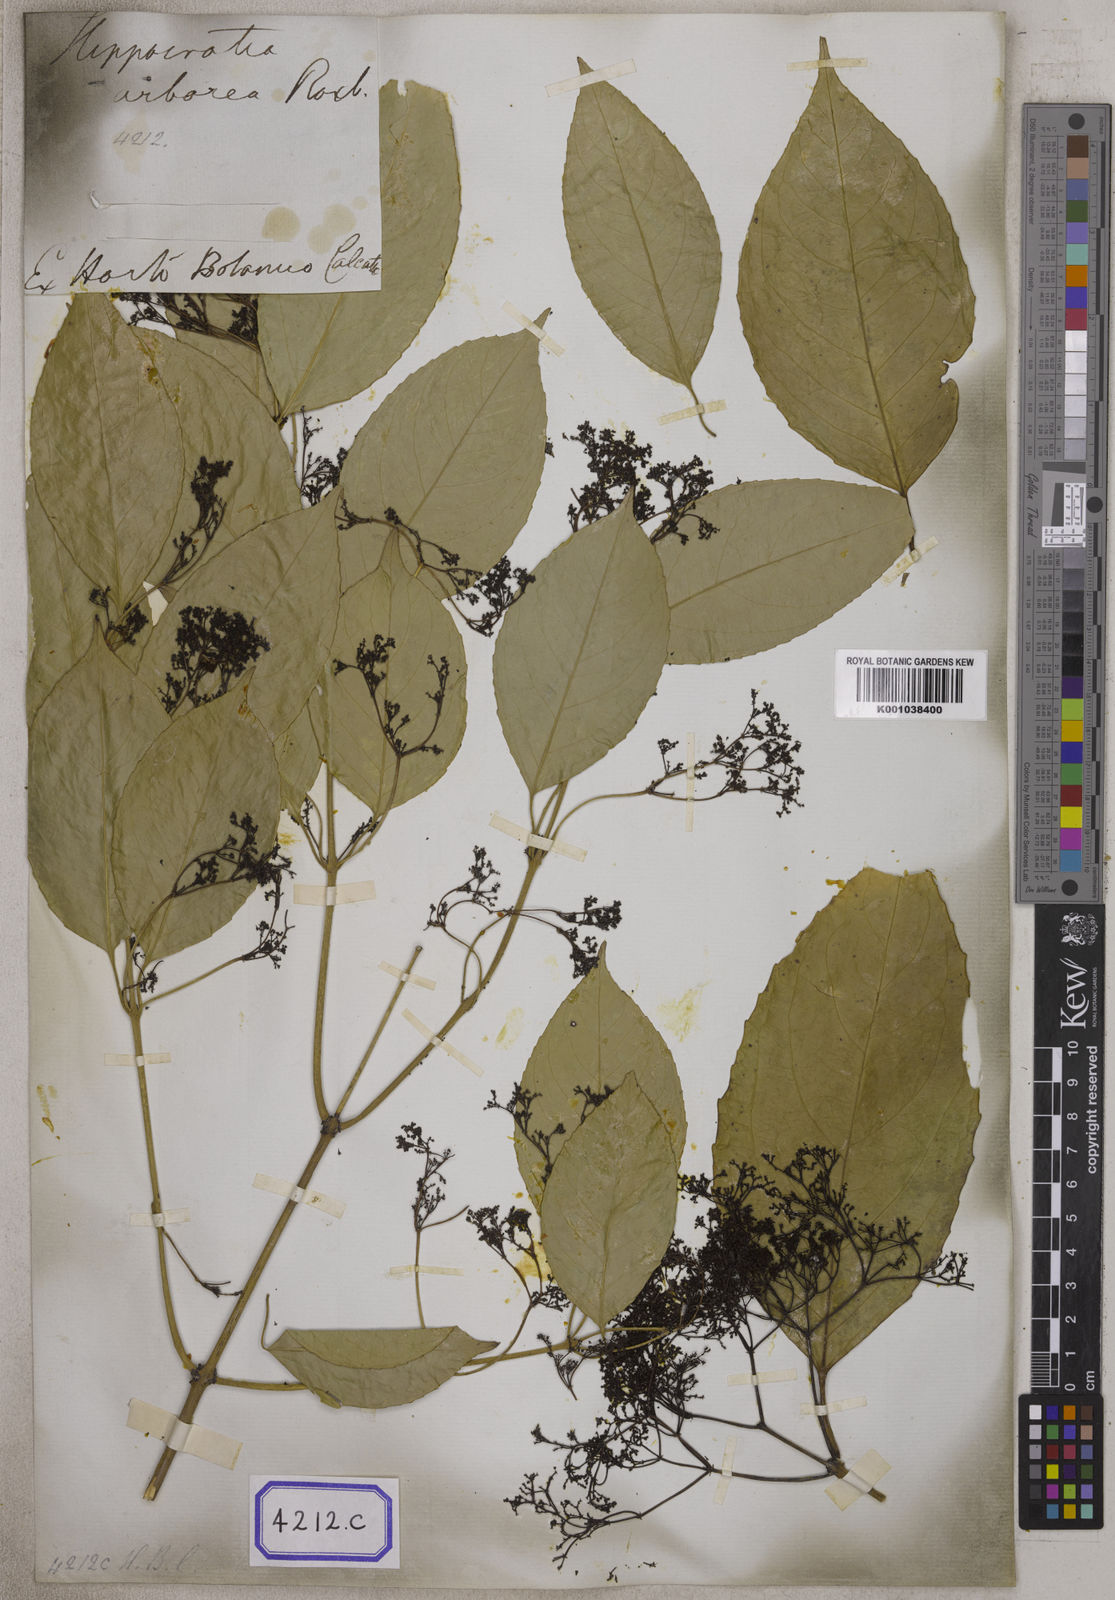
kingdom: Plantae
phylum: Tracheophyta
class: Magnoliopsida
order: Celastrales
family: Celastraceae
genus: Reissantia
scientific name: Reissantia arborea
